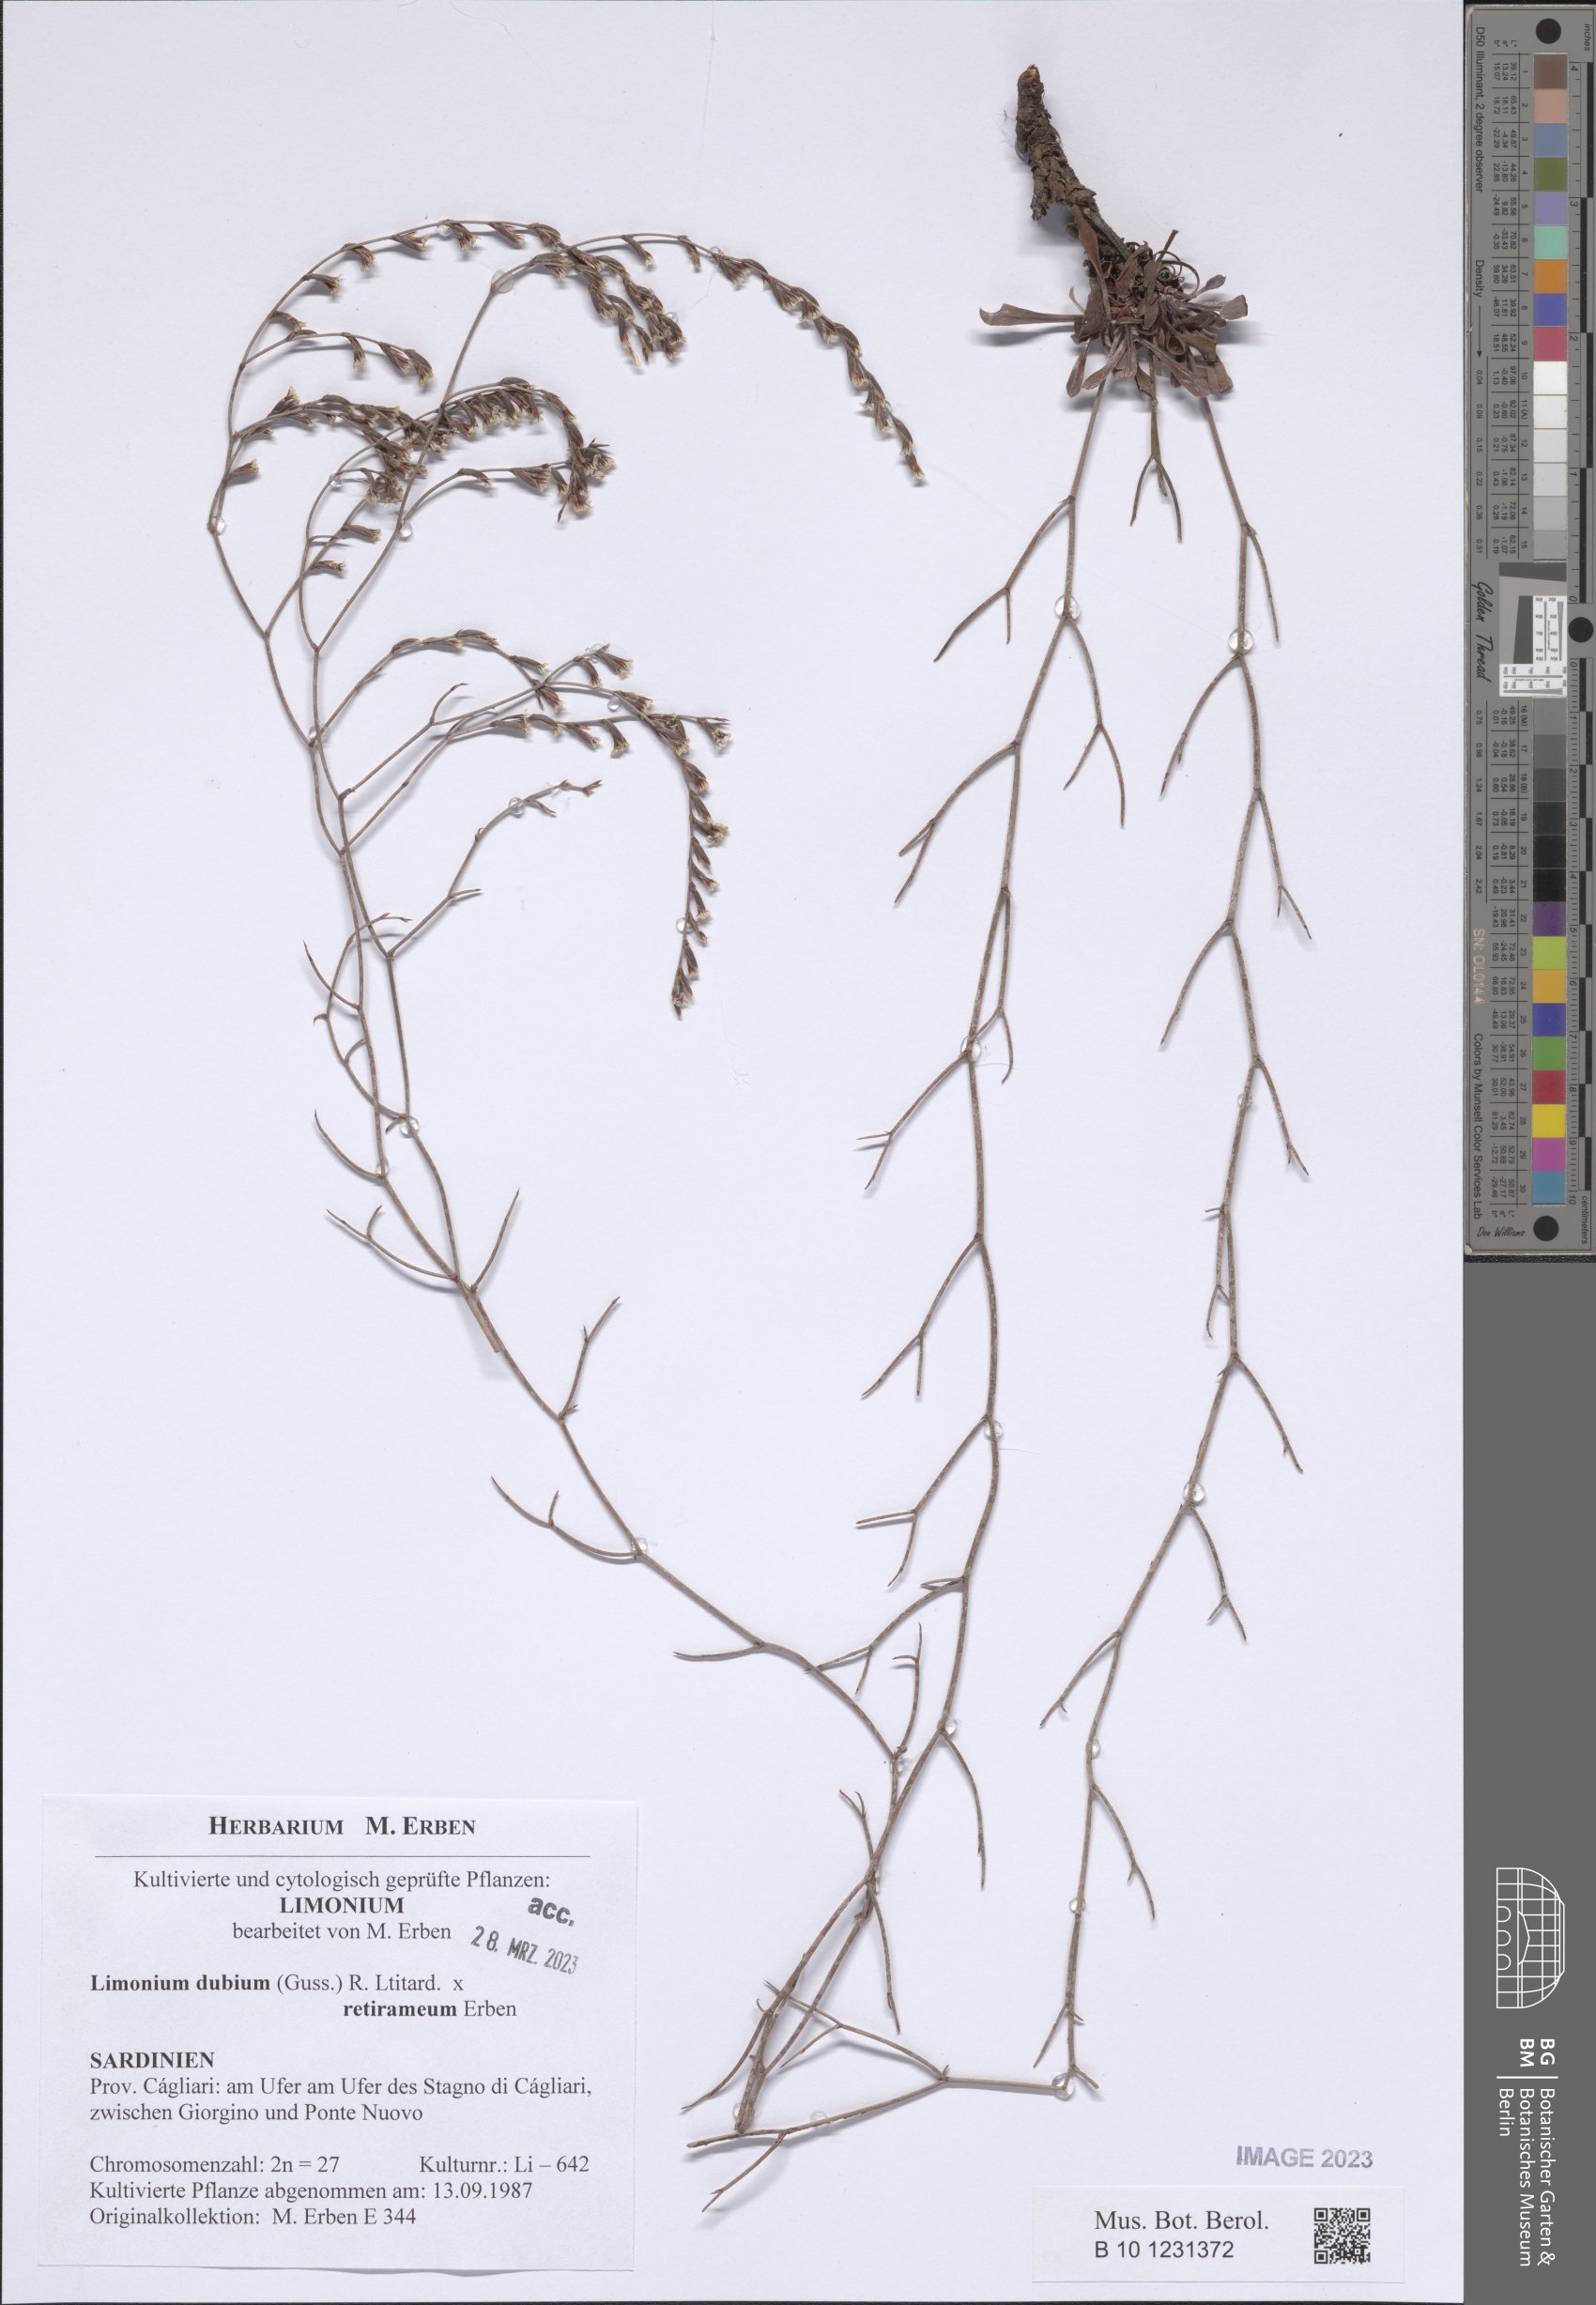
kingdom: Plantae
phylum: Tracheophyta
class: Magnoliopsida
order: Caryophyllales
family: Plumbaginaceae
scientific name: Plumbaginaceae
